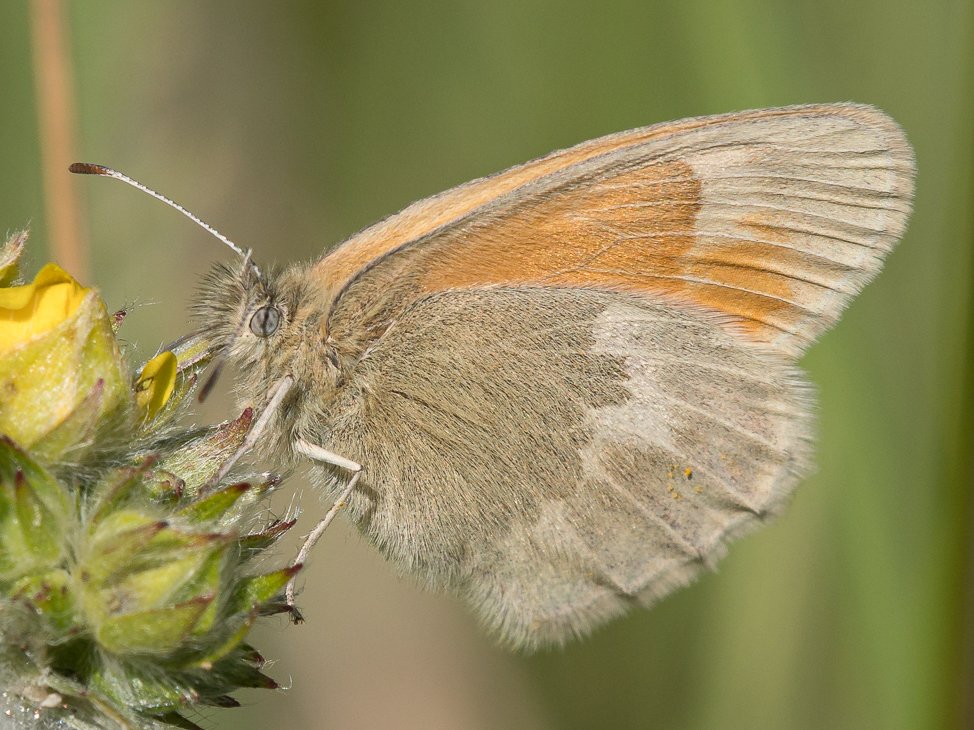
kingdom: Animalia
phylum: Arthropoda
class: Insecta
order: Lepidoptera
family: Nymphalidae
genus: Coenonympha
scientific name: Coenonympha tullia
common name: Large Heath
